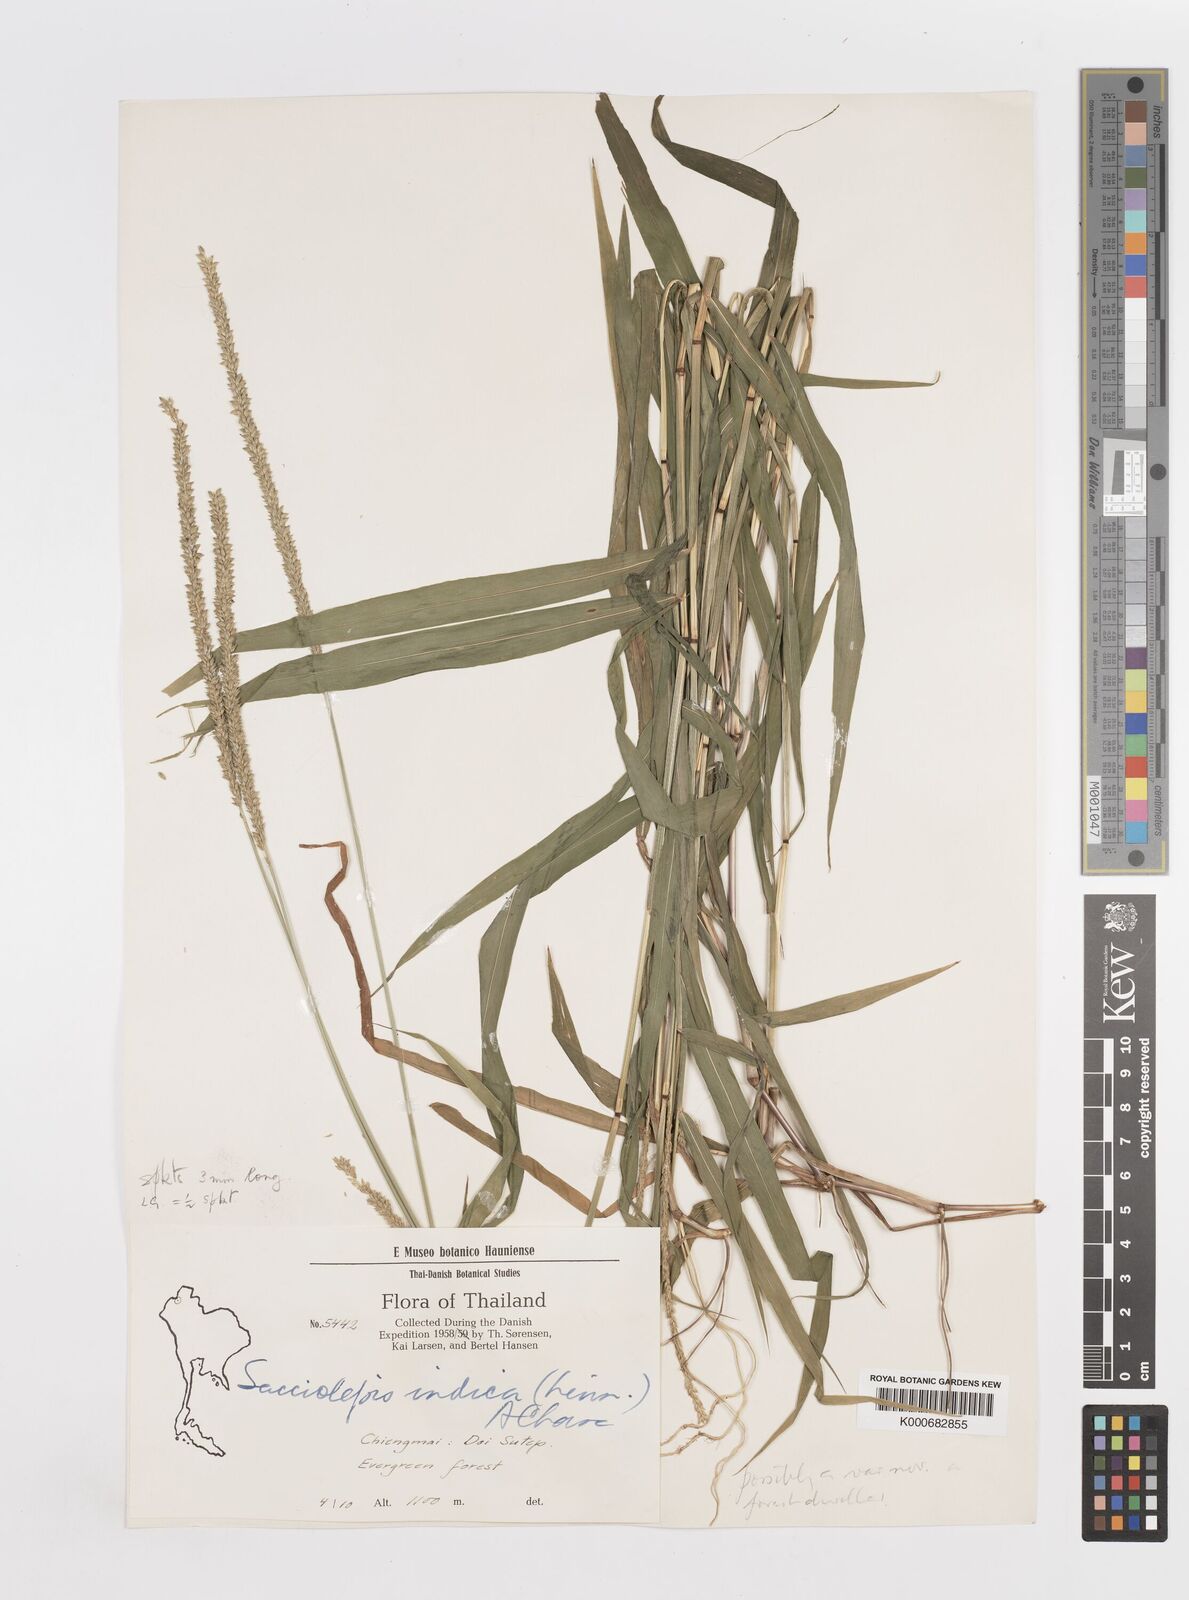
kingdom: Plantae
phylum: Tracheophyta
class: Liliopsida
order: Poales
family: Poaceae
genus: Sacciolepis
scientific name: Sacciolepis indica
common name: Glenwoodgrass
